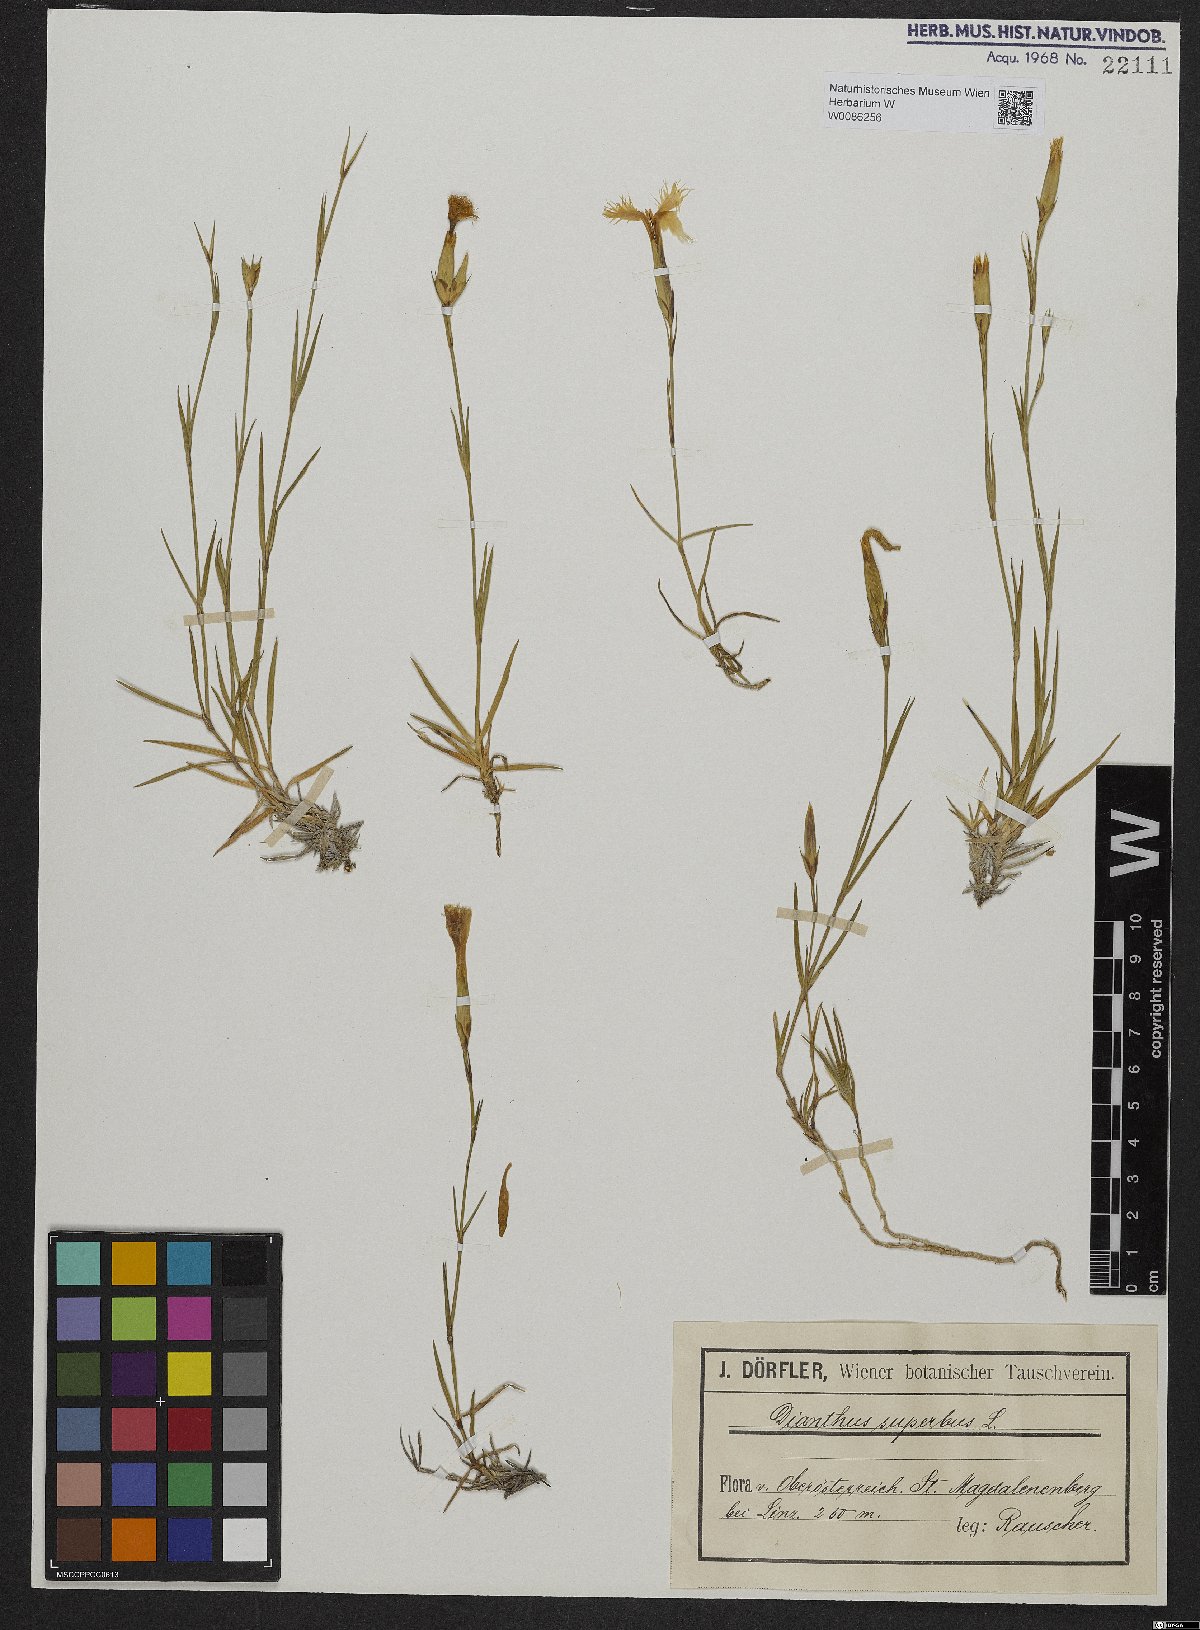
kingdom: Plantae
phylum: Tracheophyta
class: Magnoliopsida
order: Caryophyllales
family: Caryophyllaceae
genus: Dianthus
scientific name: Dianthus superbus
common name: Fringed pink
